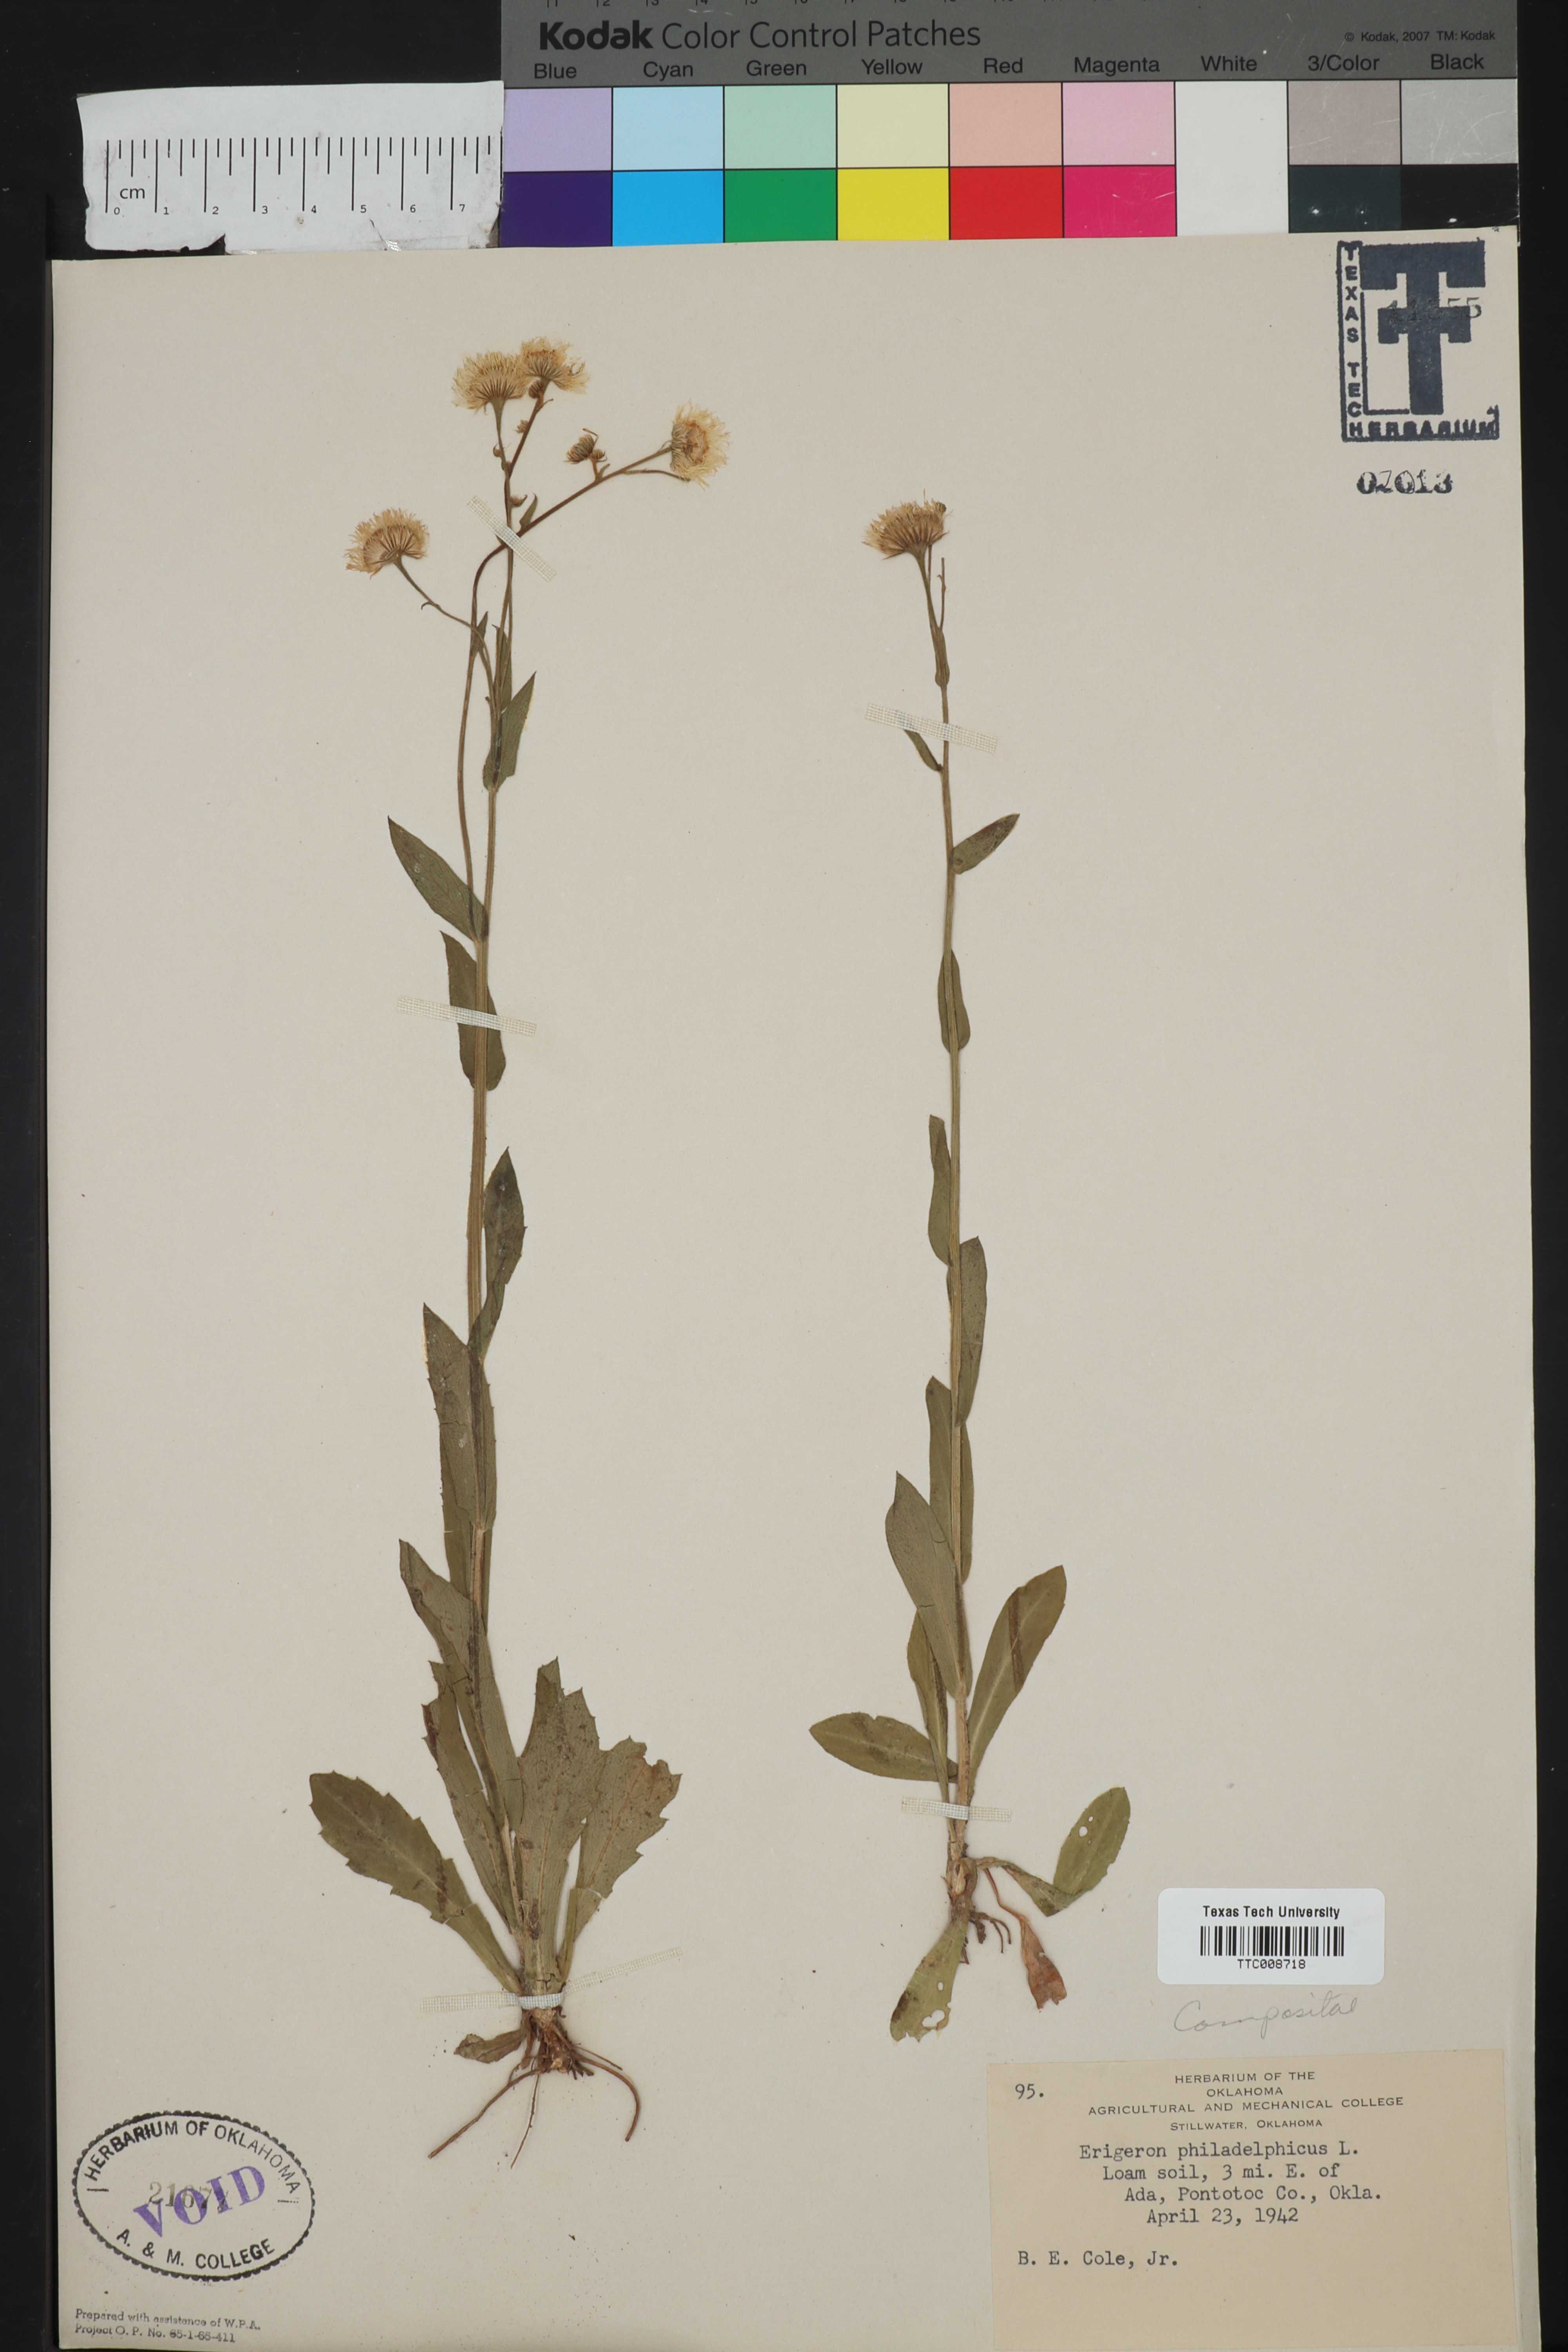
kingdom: Plantae
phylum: Tracheophyta
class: Magnoliopsida
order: Asterales
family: Asteraceae
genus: Erigeron
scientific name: Erigeron philadelphicus
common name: Robin's-plantain
